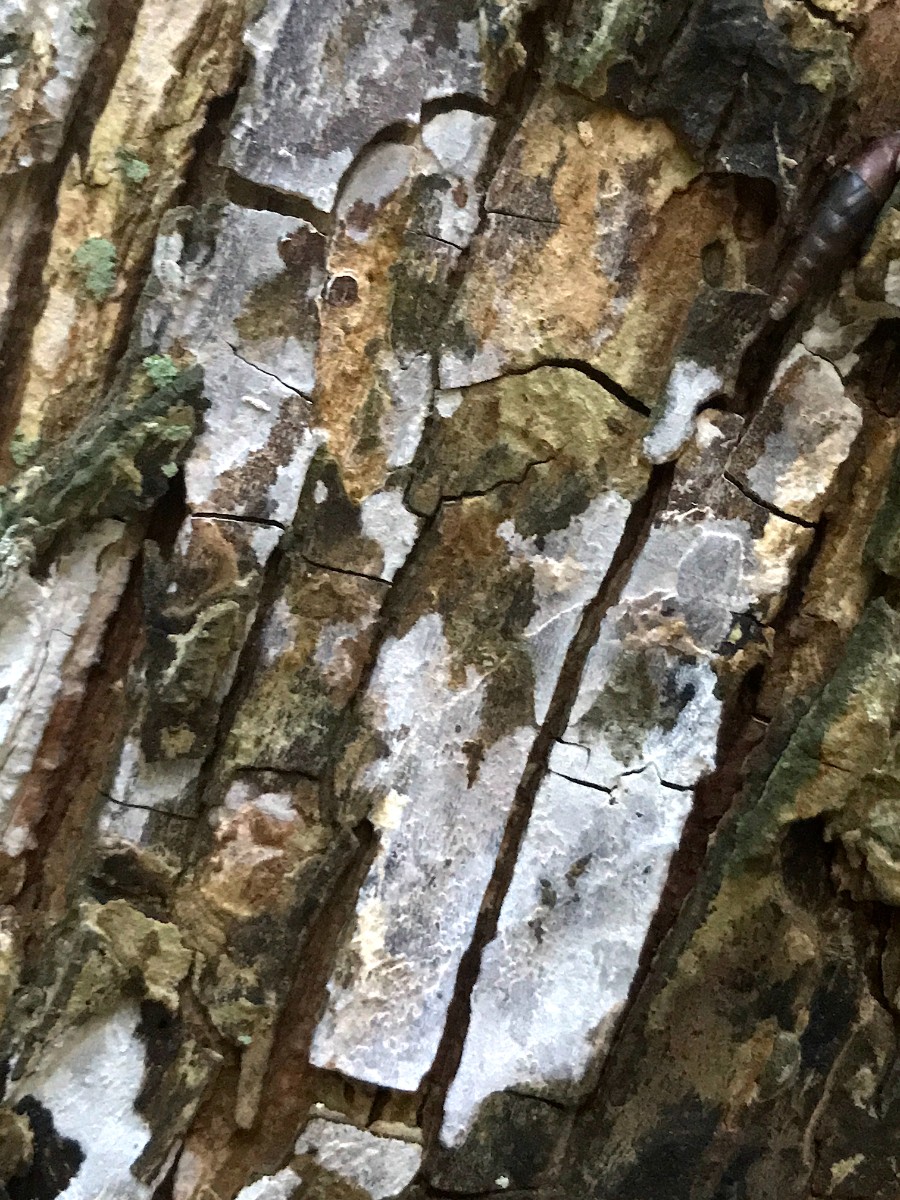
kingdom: Fungi
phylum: Basidiomycota
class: Agaricomycetes
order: Agaricales
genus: Dendrothele
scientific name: Dendrothele acerina
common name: navr-kalkplet
